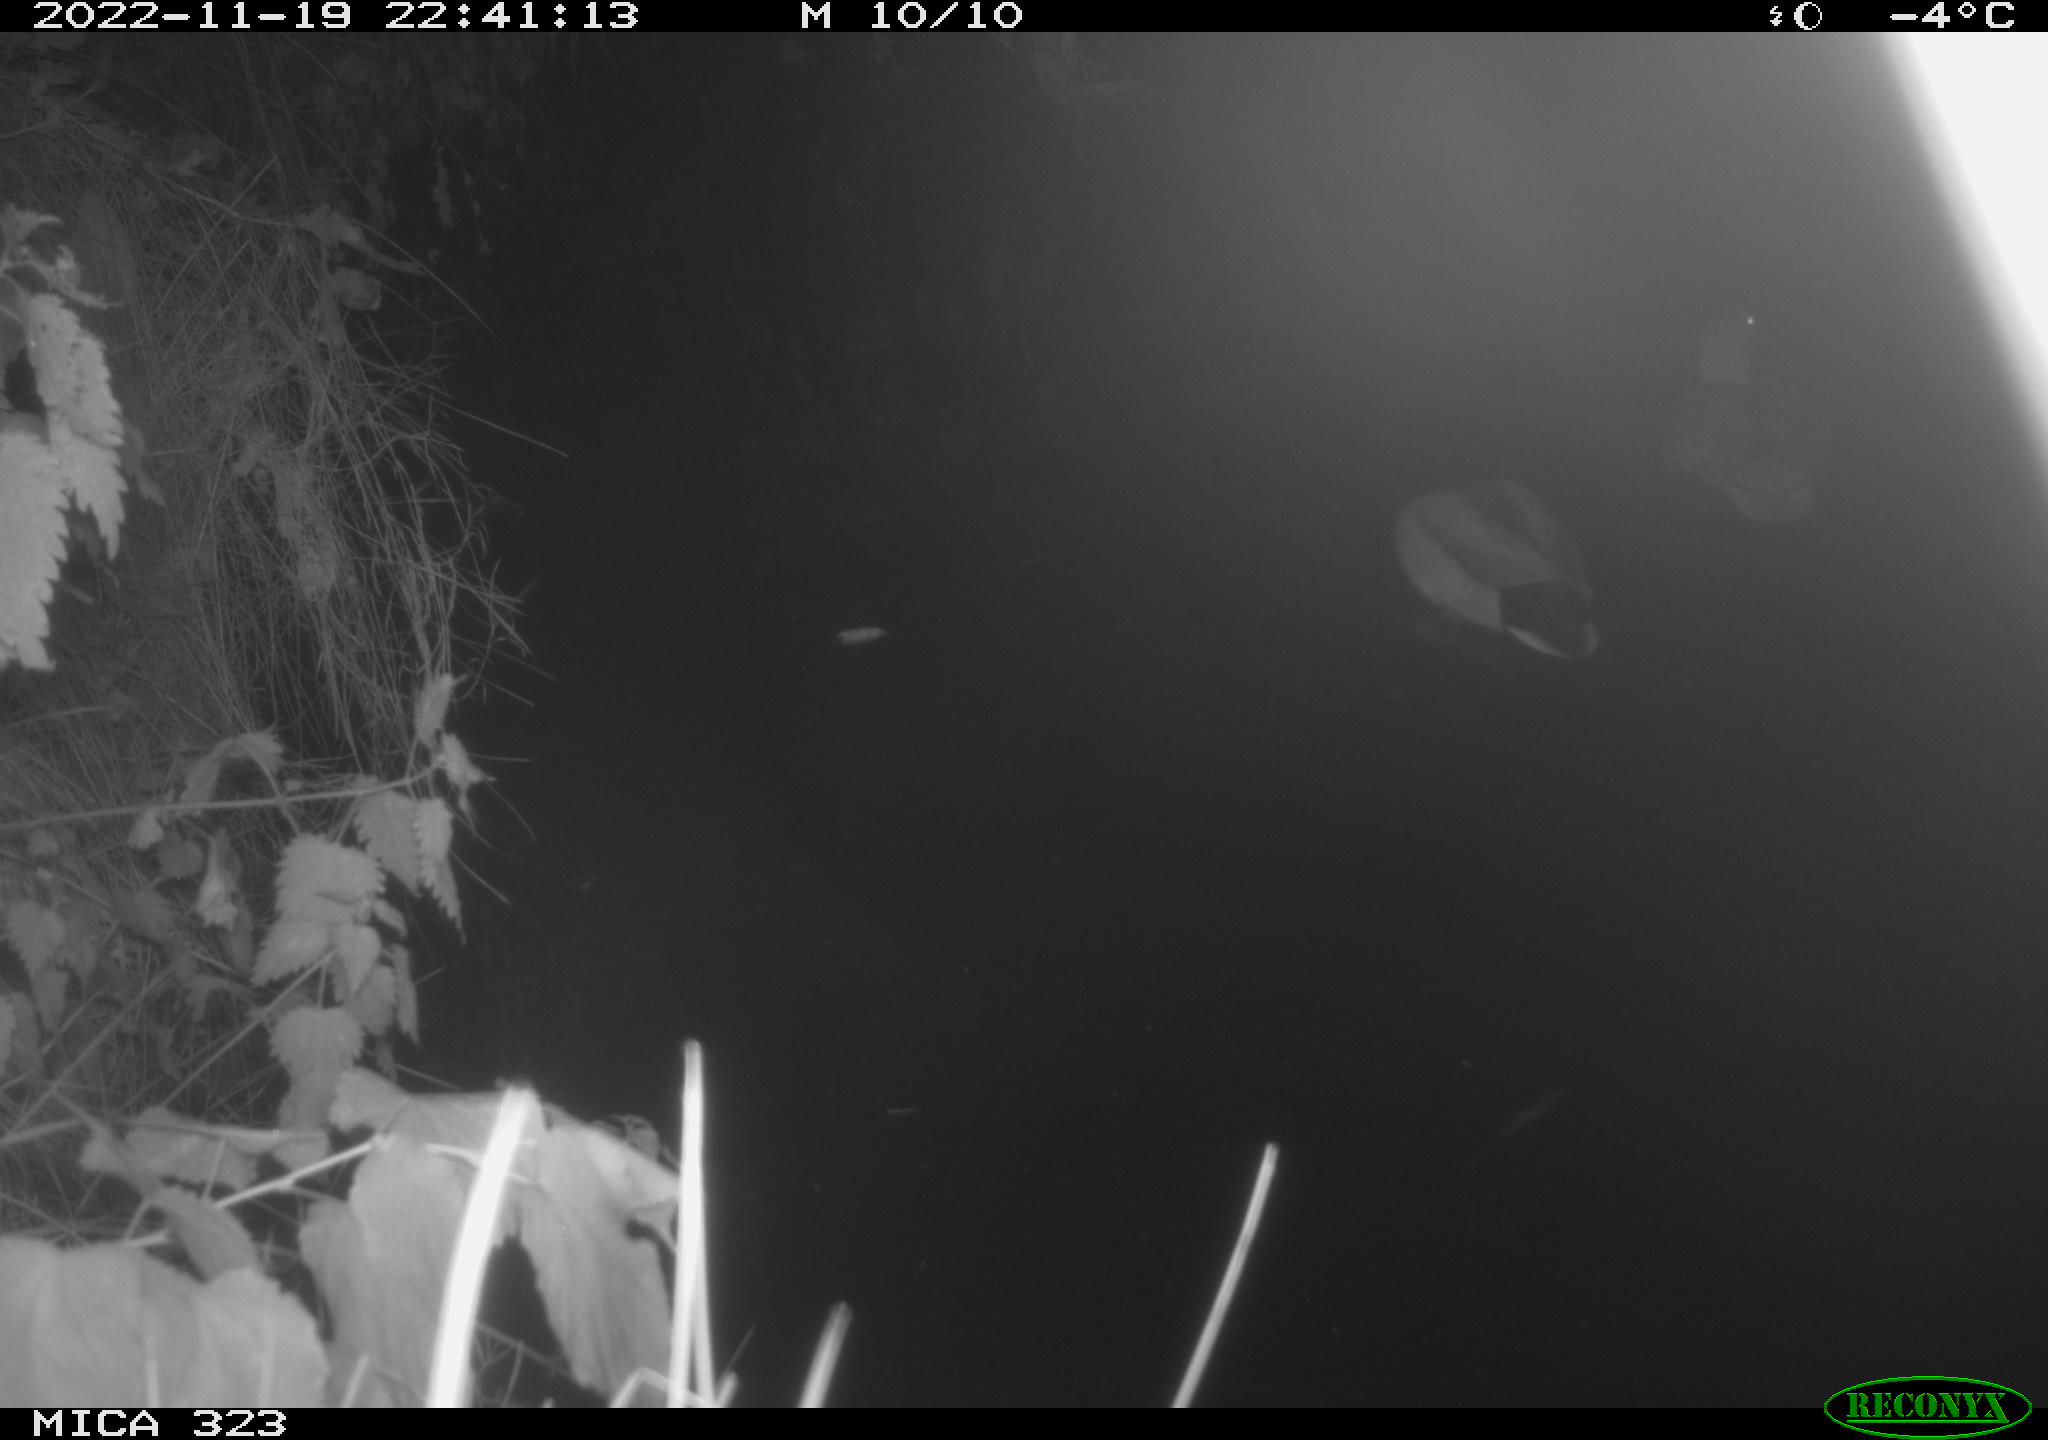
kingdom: Animalia
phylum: Chordata
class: Aves
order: Anseriformes
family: Anatidae
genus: Anas
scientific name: Anas
